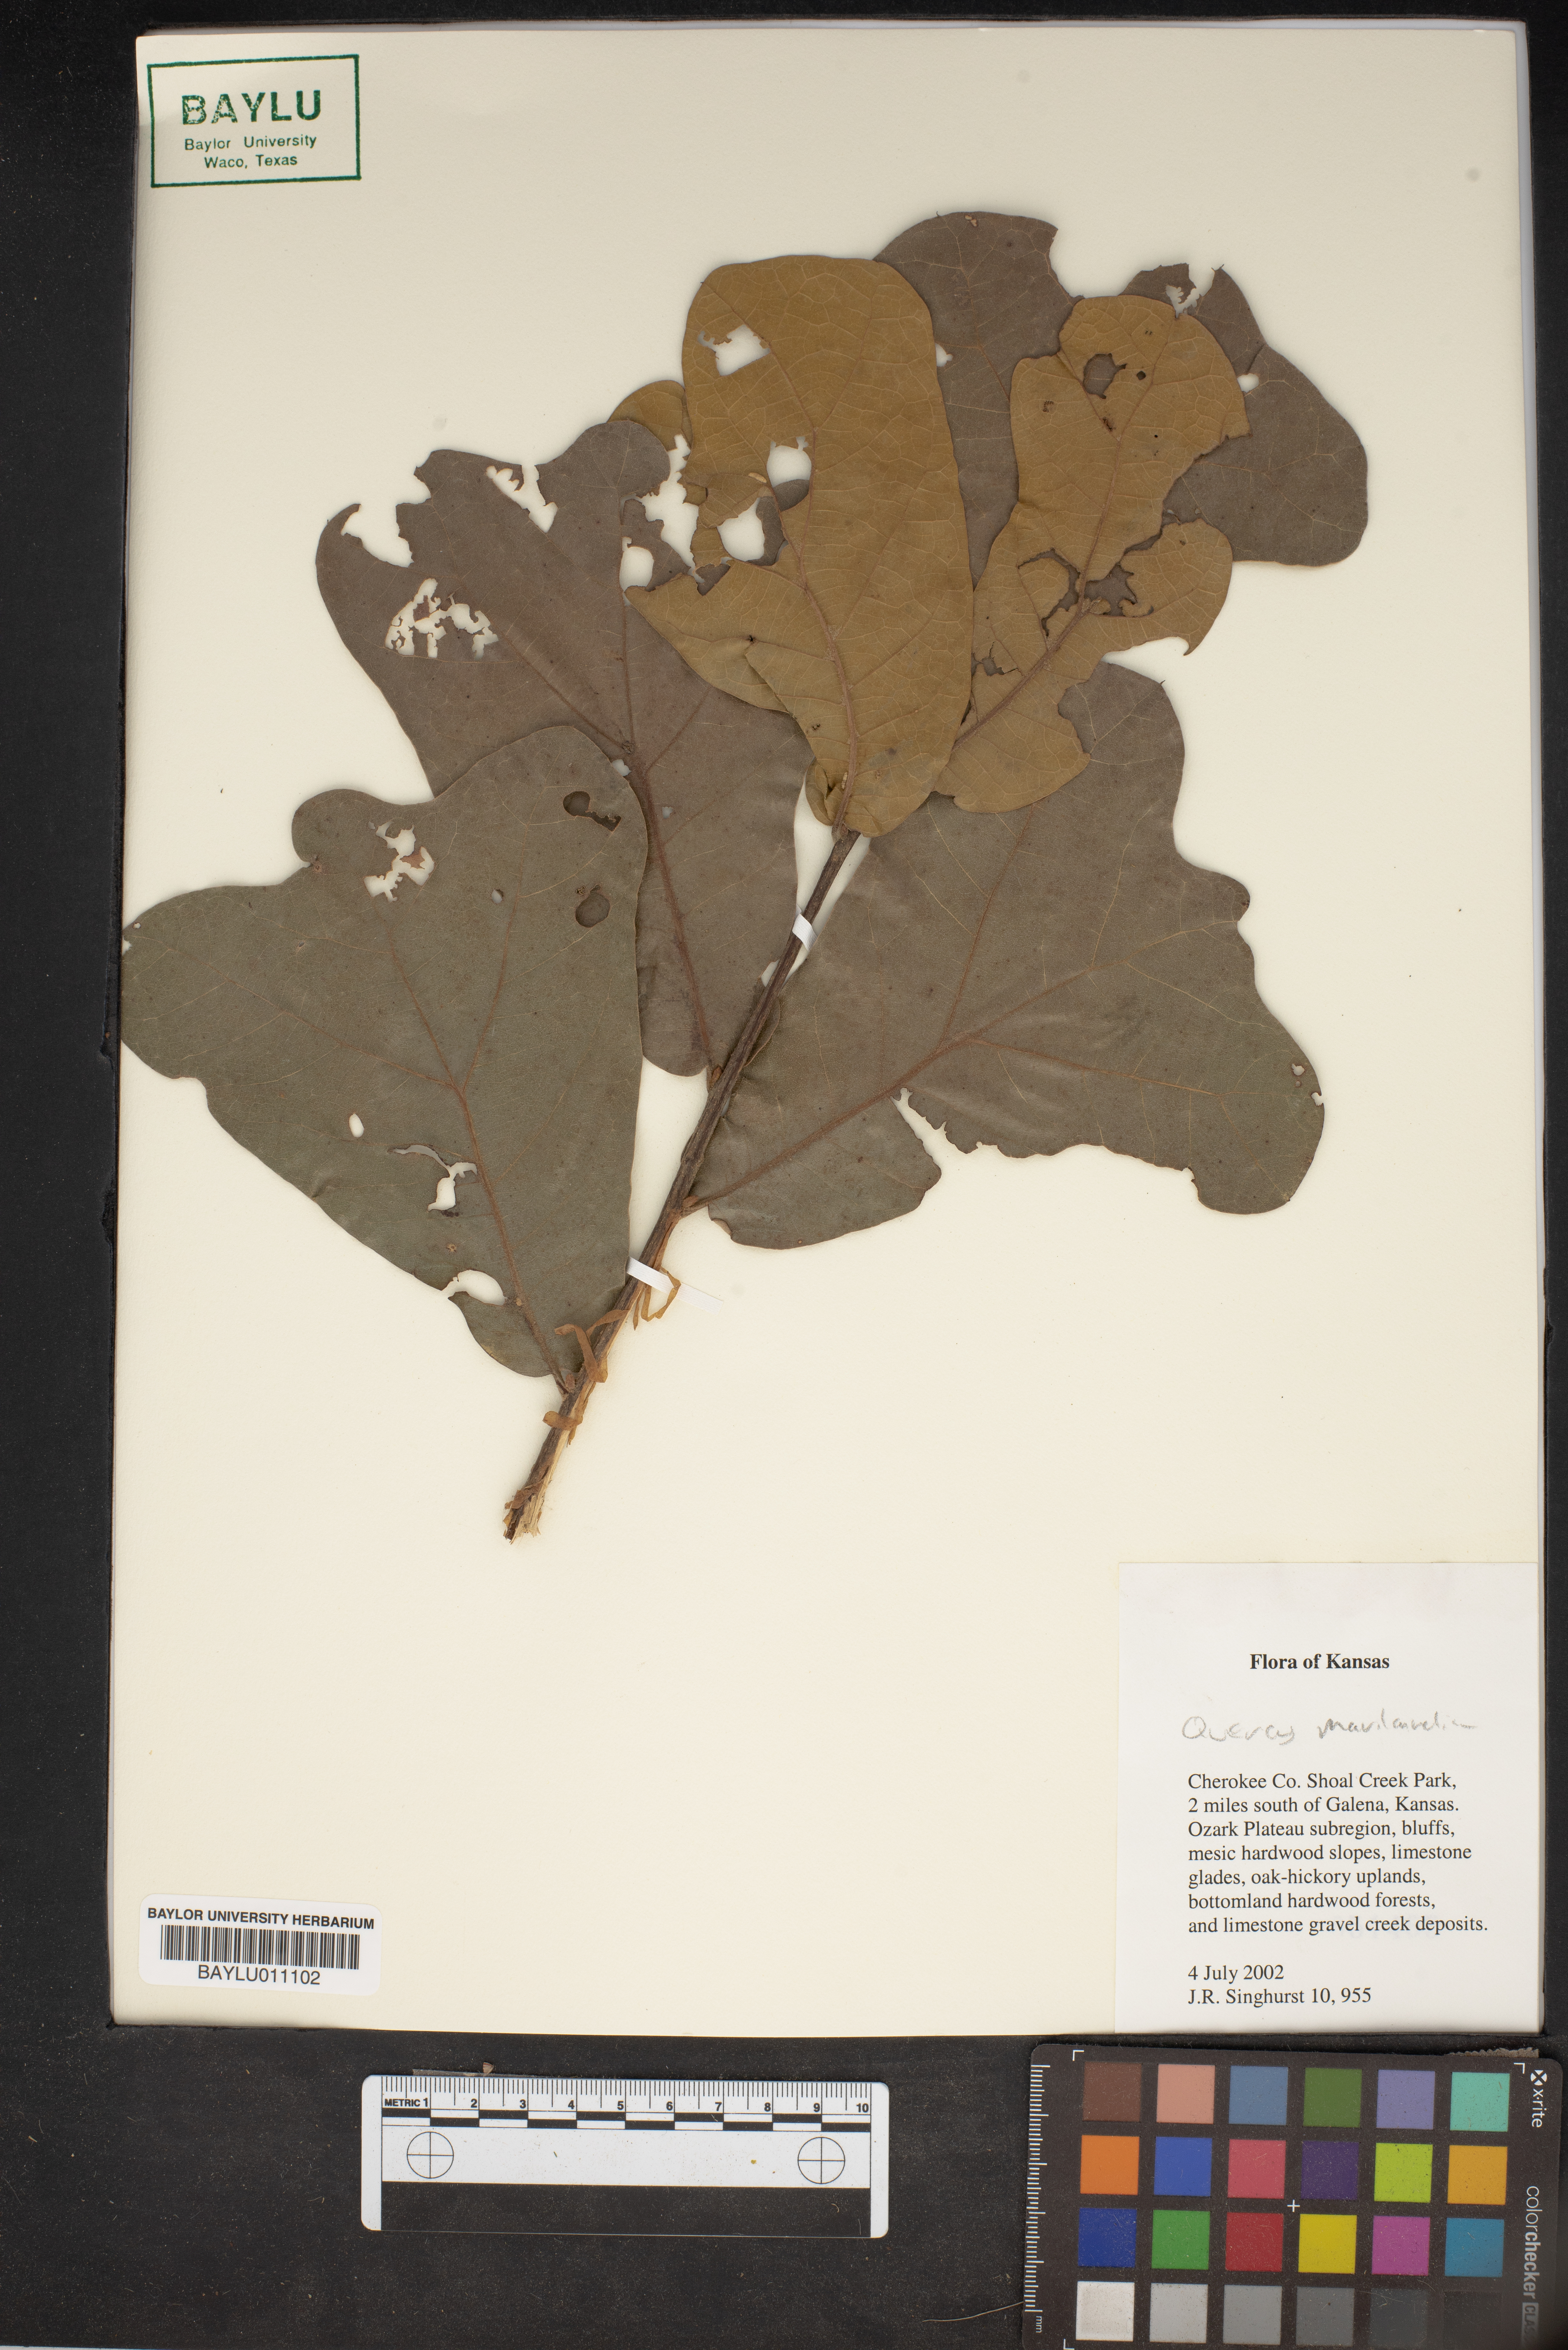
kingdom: Plantae
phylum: Tracheophyta
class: Magnoliopsida
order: Fagales
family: Fagaceae
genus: Quercus
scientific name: Quercus marilandica
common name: Blackjack oak
